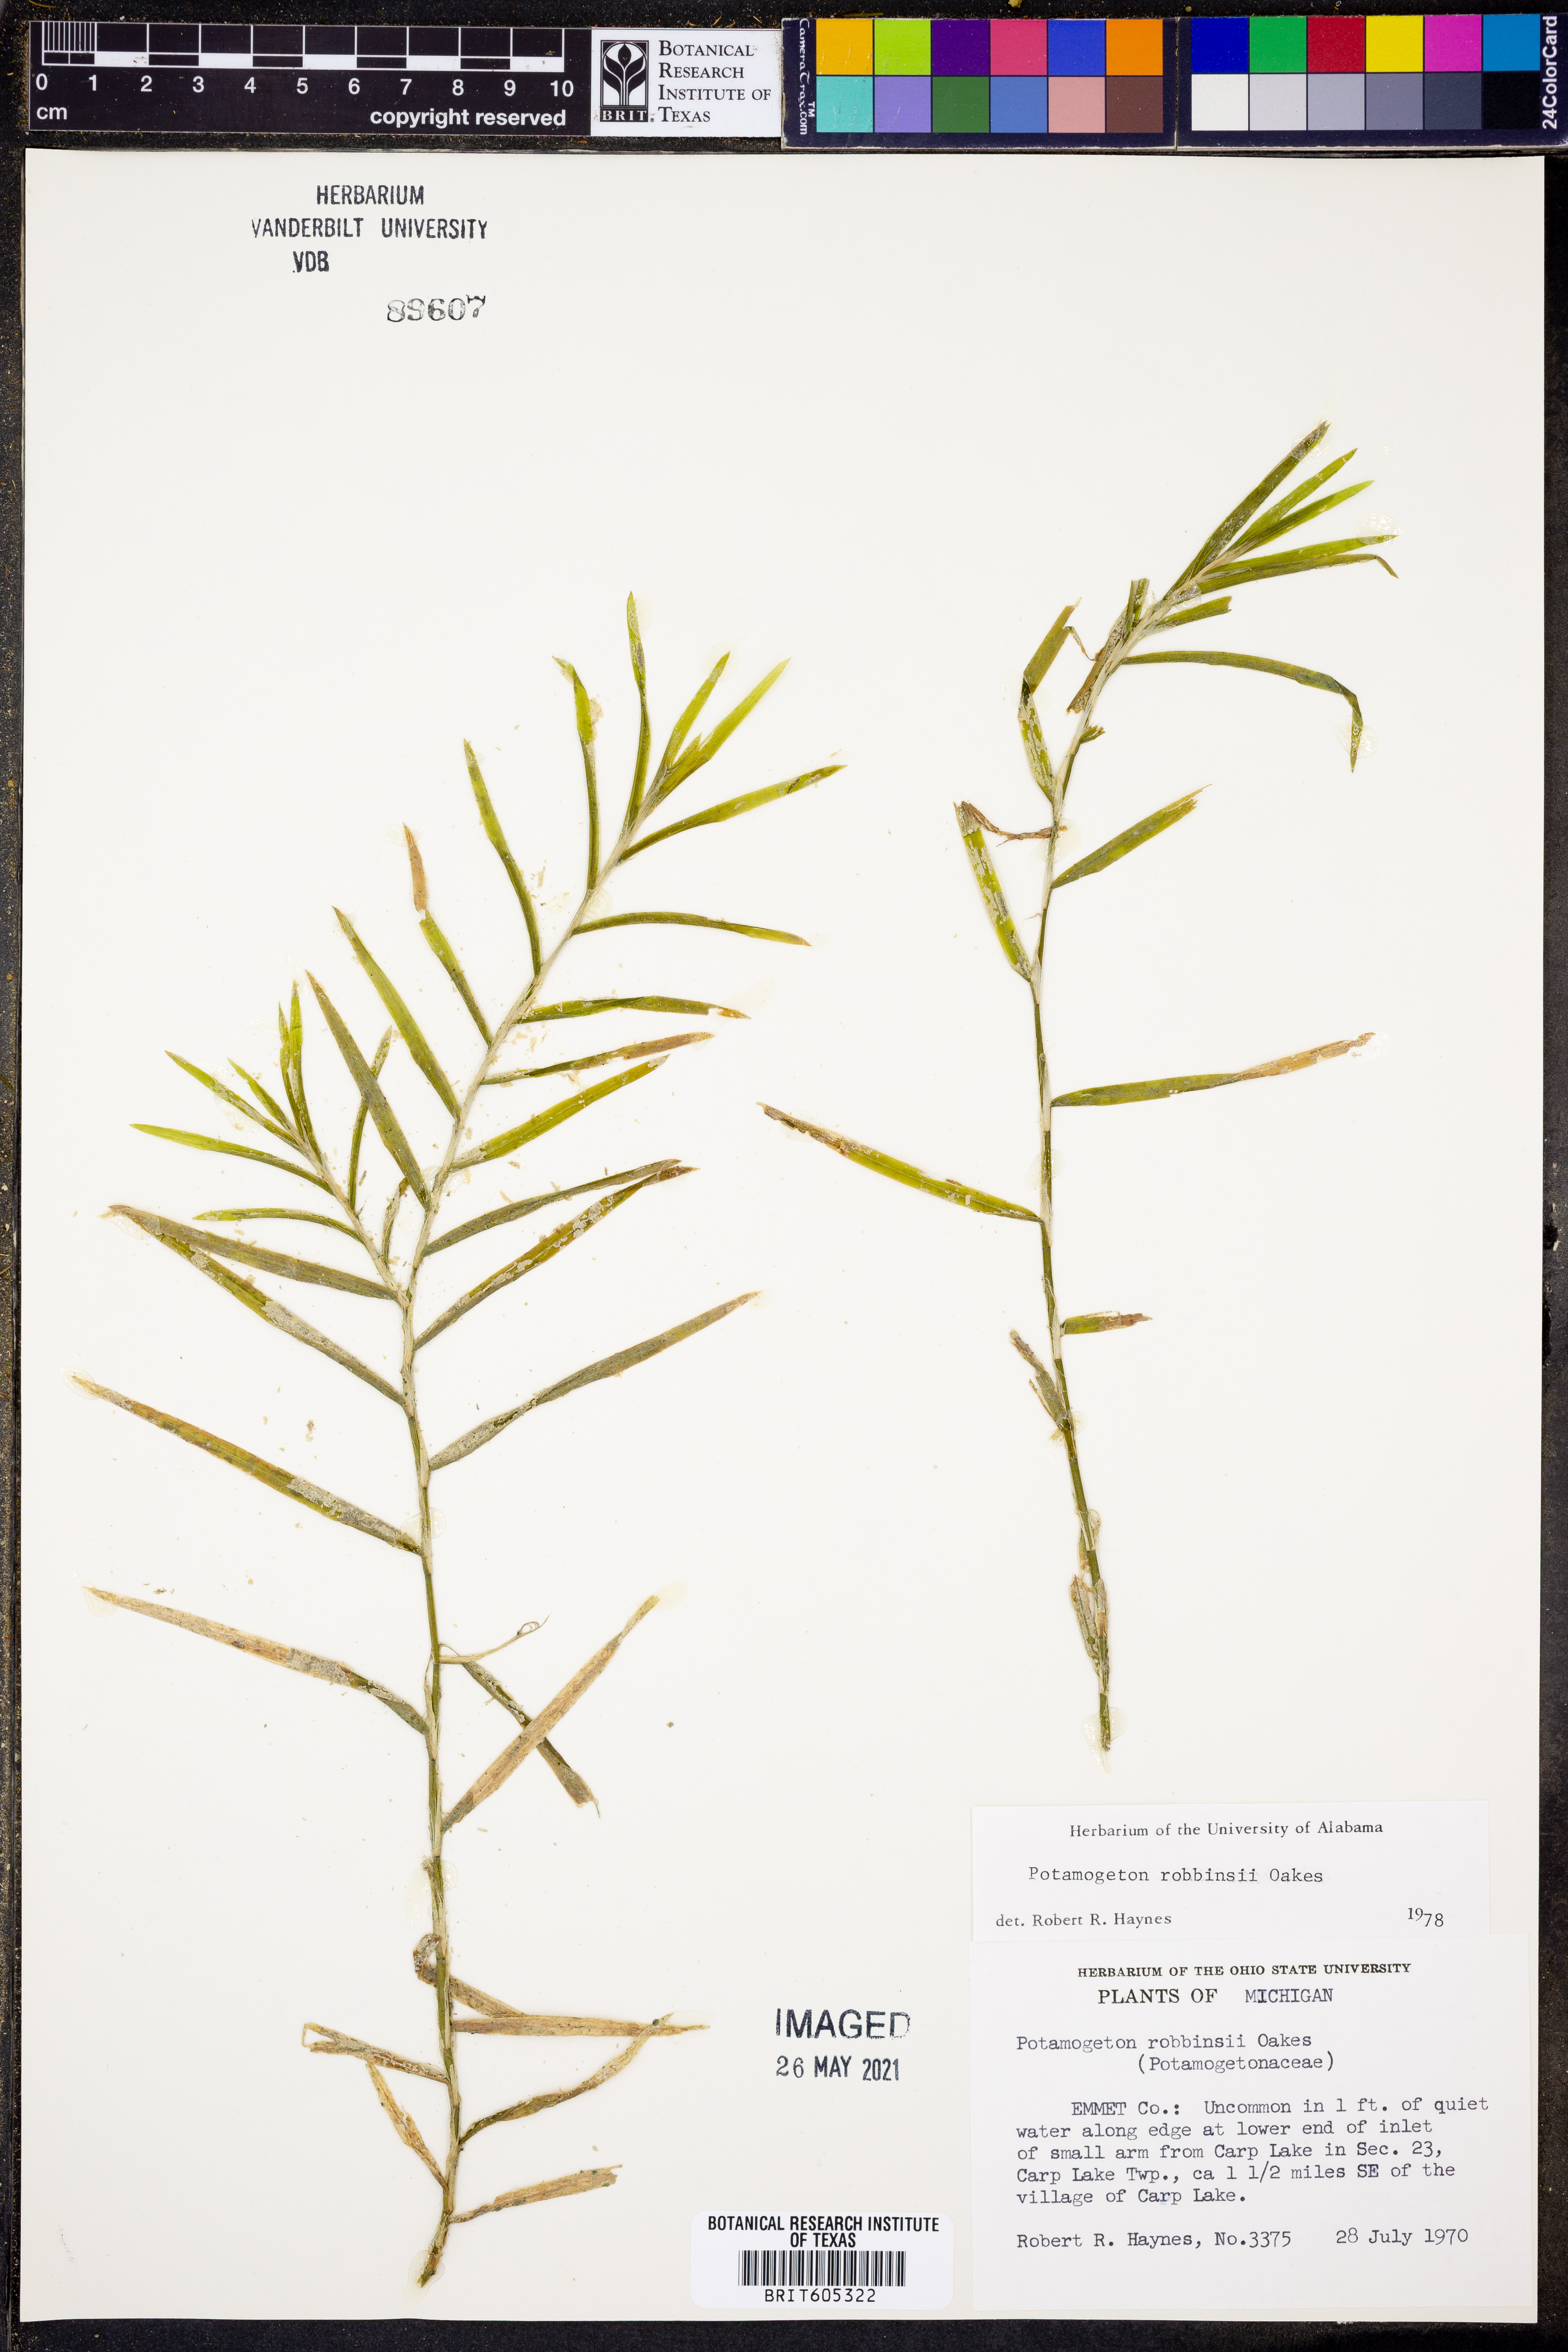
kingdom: Plantae
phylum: Tracheophyta
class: Liliopsida
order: Alismatales
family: Potamogetonaceae
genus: Potamogeton
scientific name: Potamogeton robbinsii
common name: Fern pondweed
